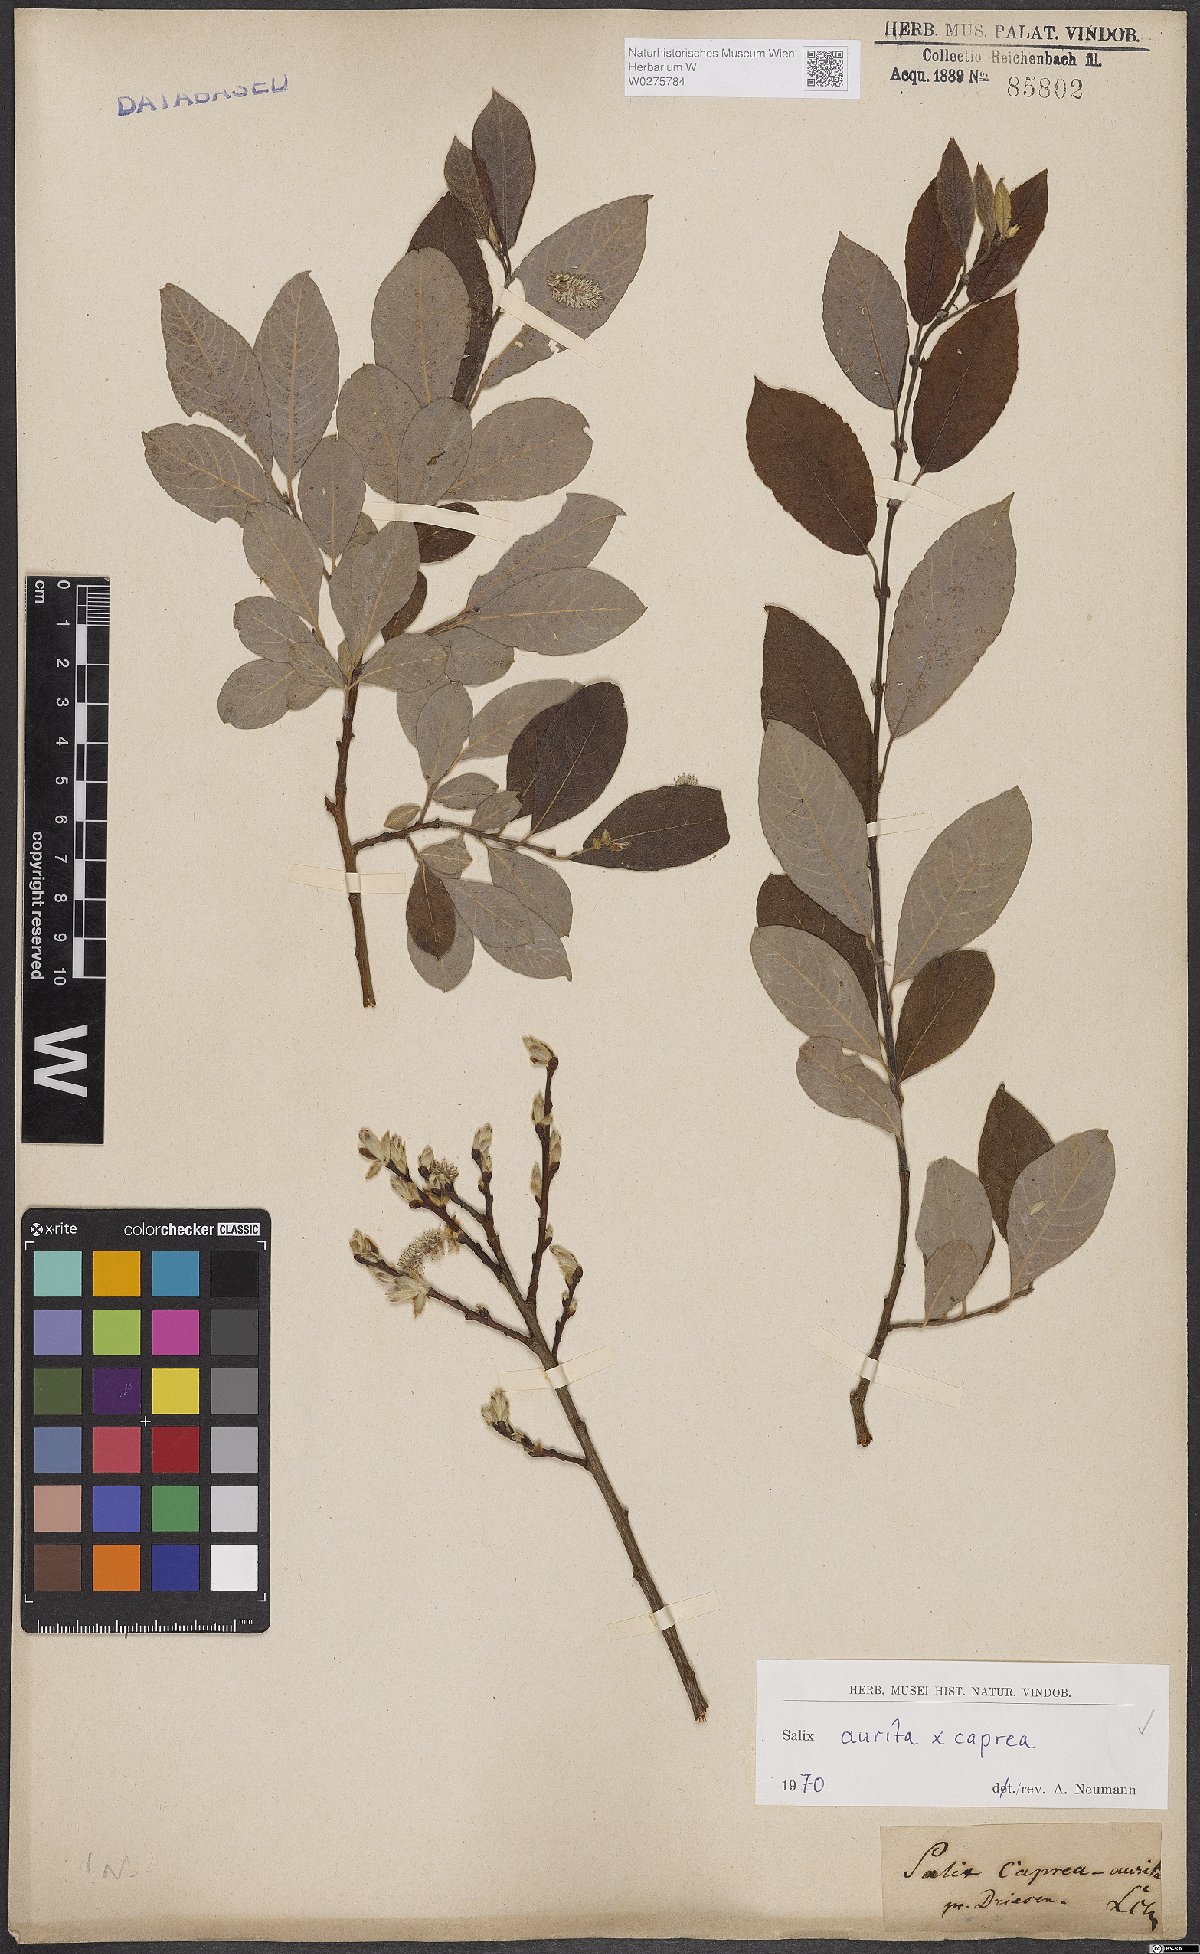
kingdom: Plantae
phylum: Tracheophyta
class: Magnoliopsida
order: Malpighiales
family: Salicaceae
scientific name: Salicaceae
